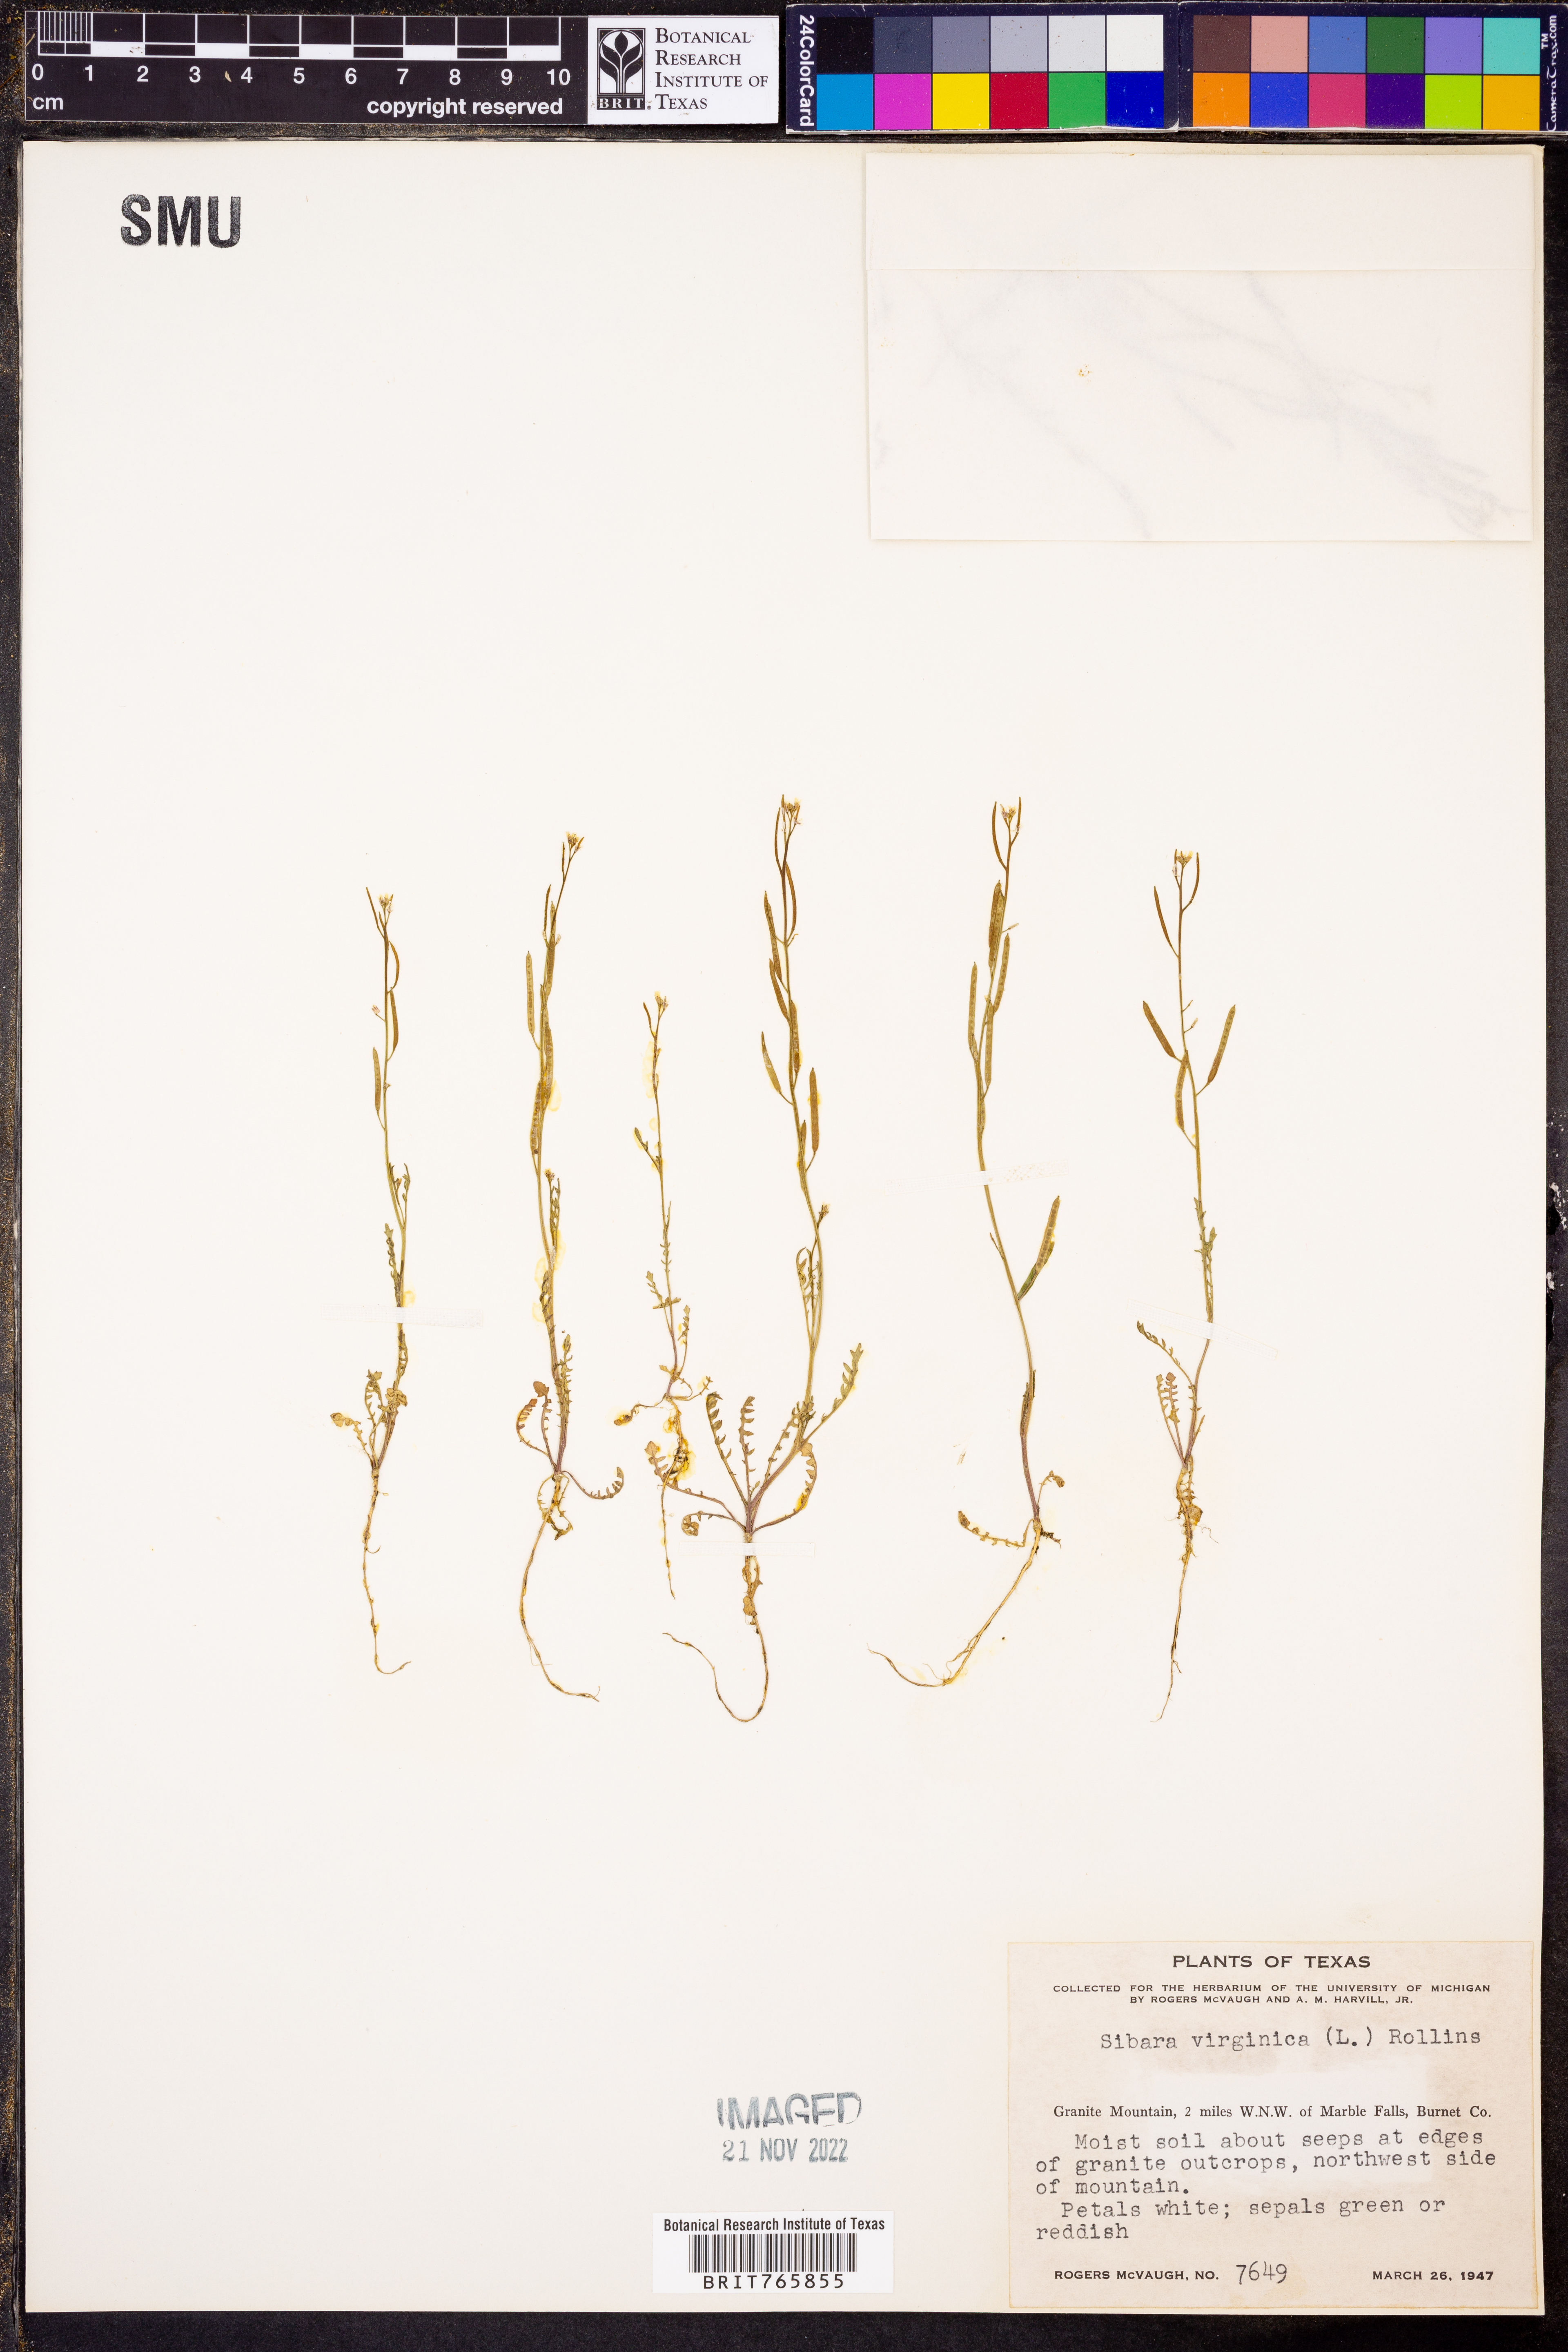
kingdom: Plantae
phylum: Tracheophyta
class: Magnoliopsida
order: Brassicales
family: Brassicaceae
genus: Planodes
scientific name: Planodes virginicum
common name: Virginia cress
